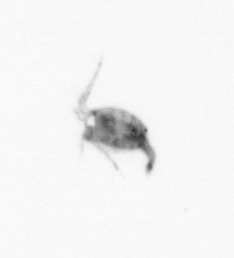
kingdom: Animalia
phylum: Arthropoda
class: Copepoda
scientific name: Copepoda
